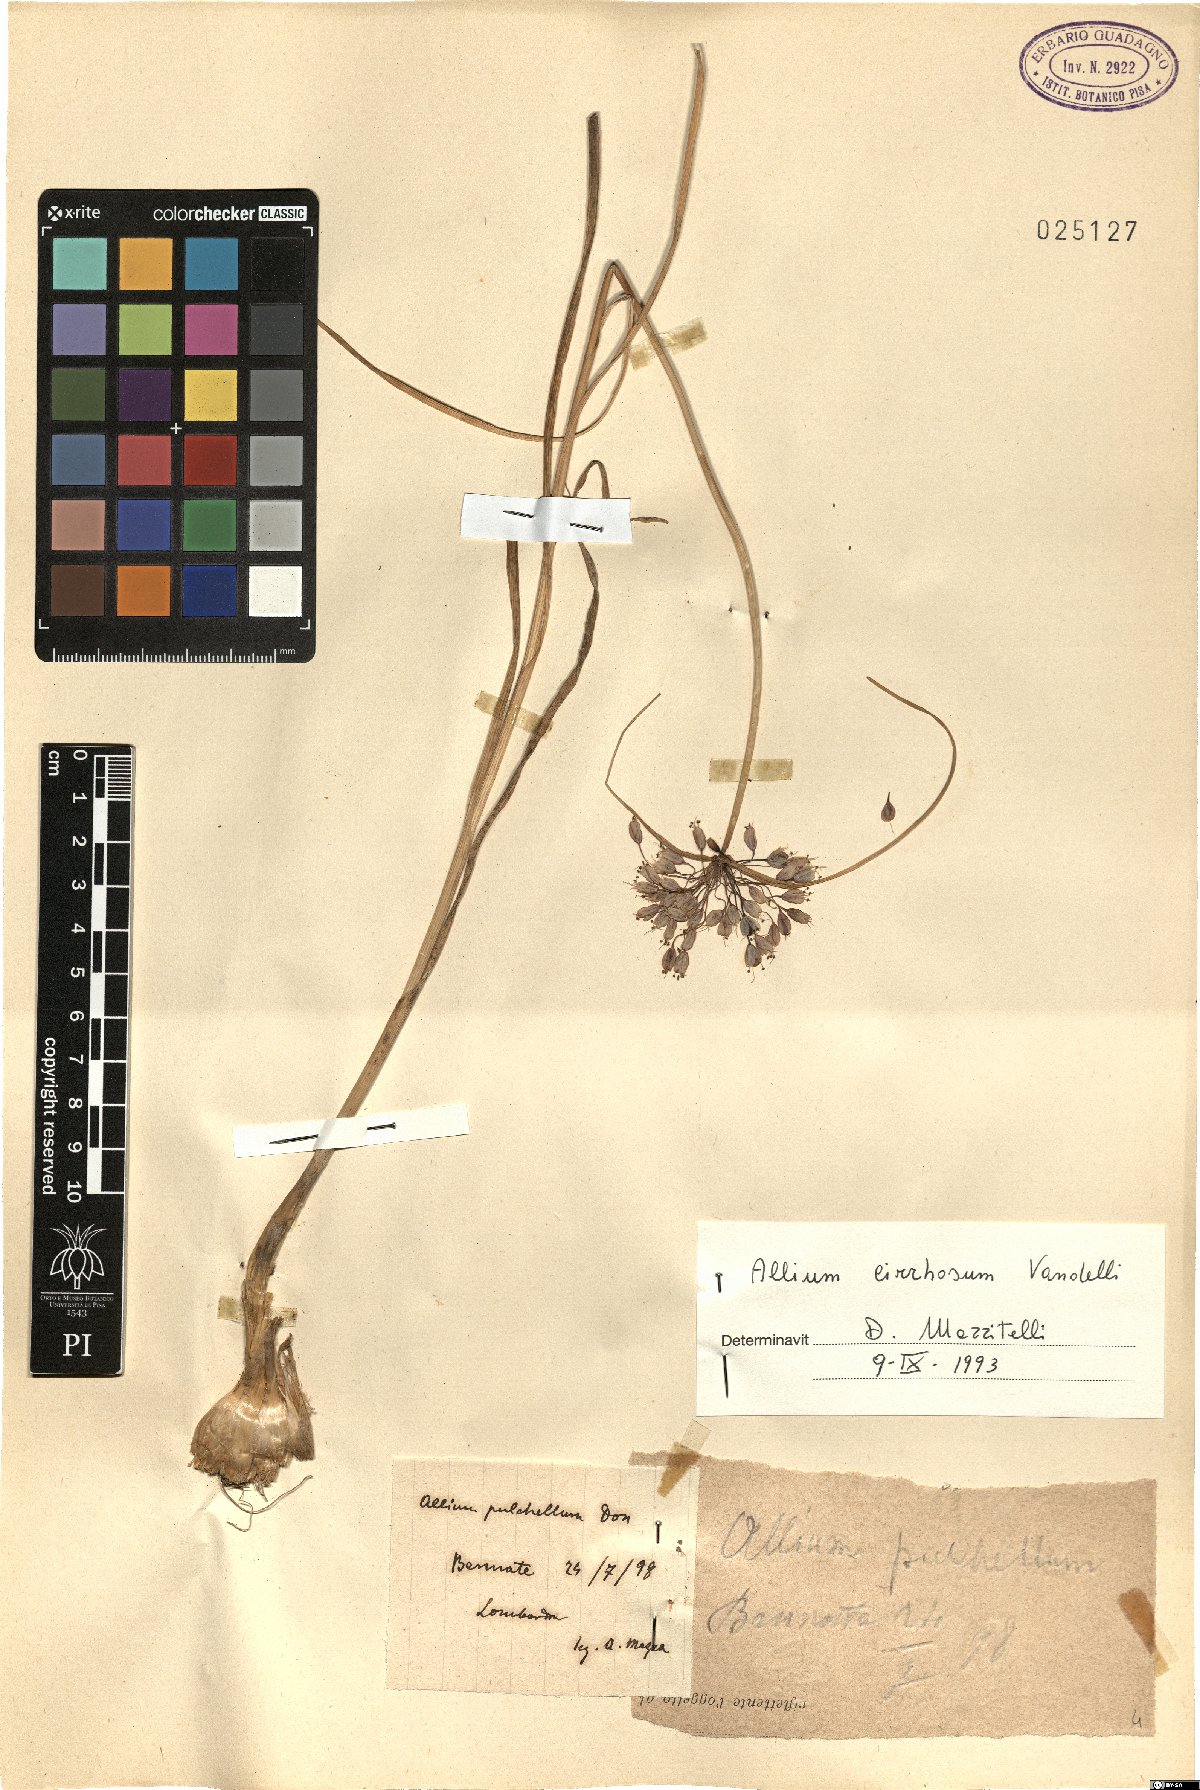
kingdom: Plantae
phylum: Tracheophyta
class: Liliopsida
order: Asparagales
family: Amaryllidaceae
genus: Allium
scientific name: Allium coloratum
